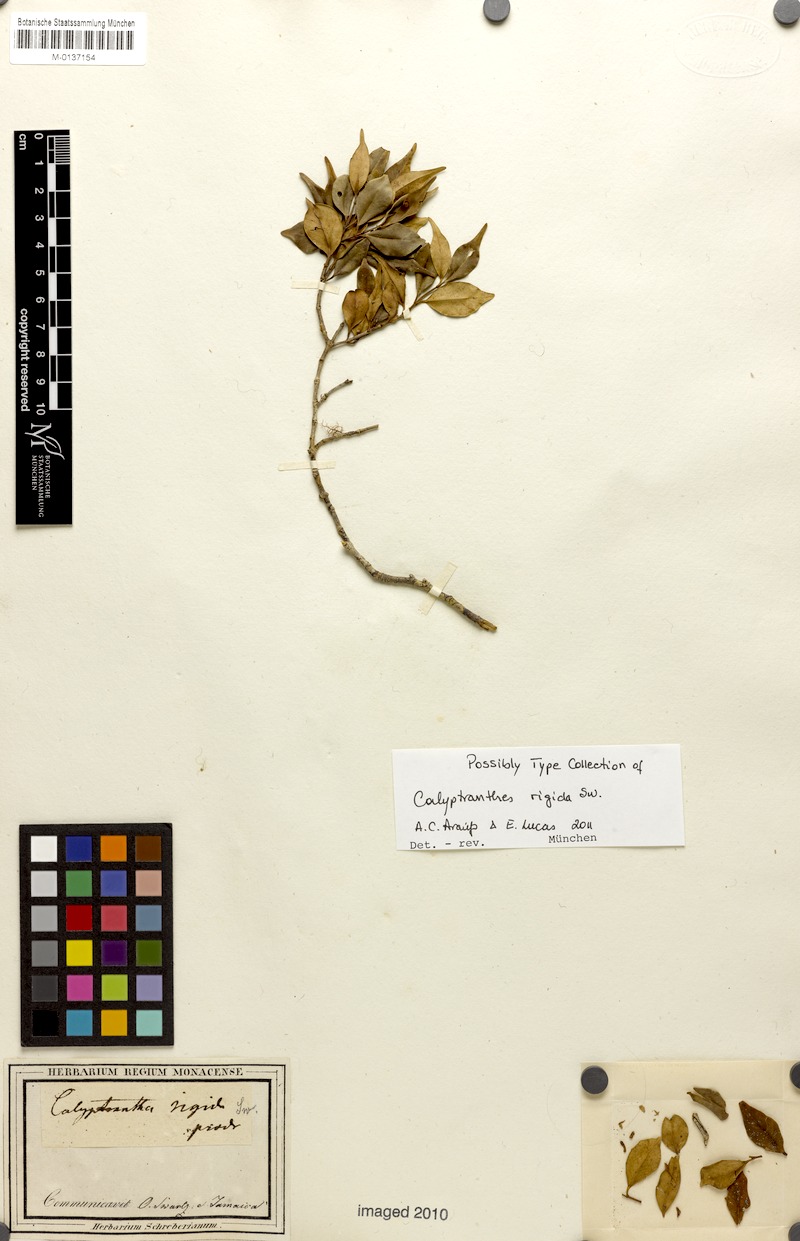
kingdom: Plantae
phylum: Tracheophyta
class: Magnoliopsida
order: Myrtales
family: Myrtaceae
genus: Myrcia
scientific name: Myrcia rigida
